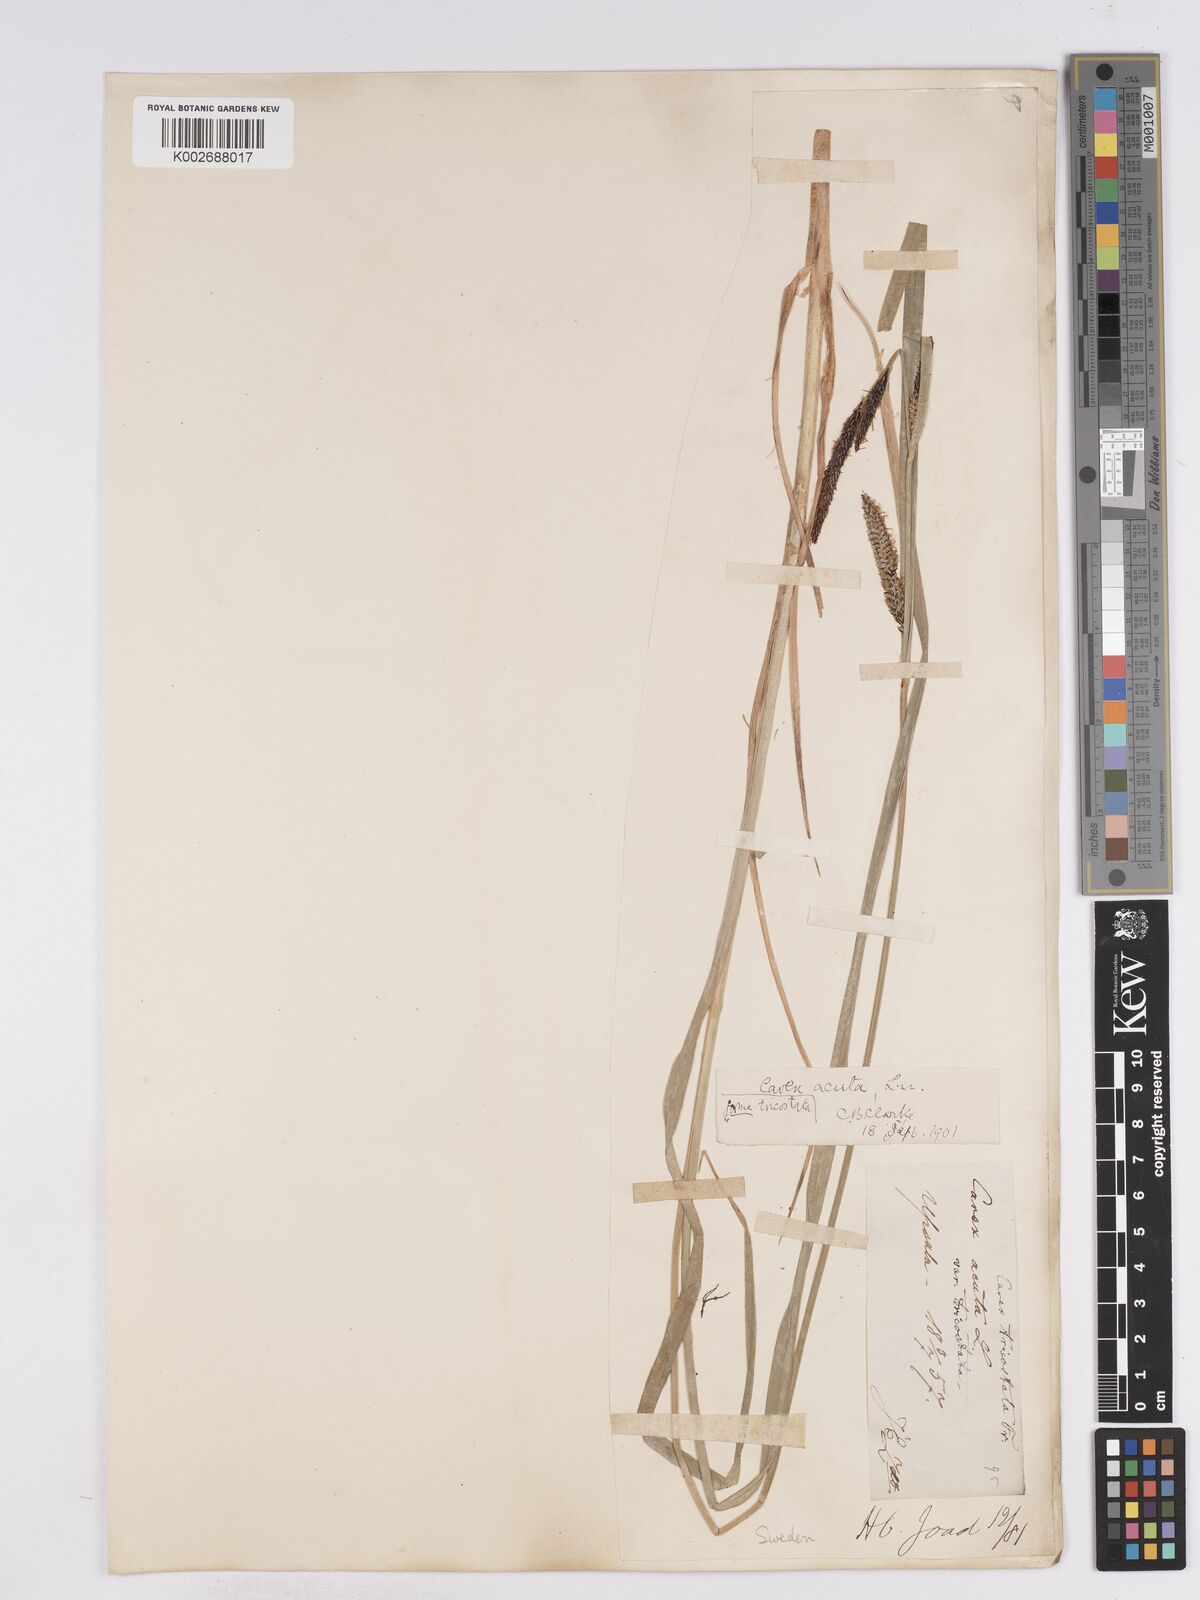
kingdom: Plantae
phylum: Tracheophyta
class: Liliopsida
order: Poales
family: Cyperaceae
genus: Carex
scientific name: Carex acuta
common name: Slender tufted-sedge
